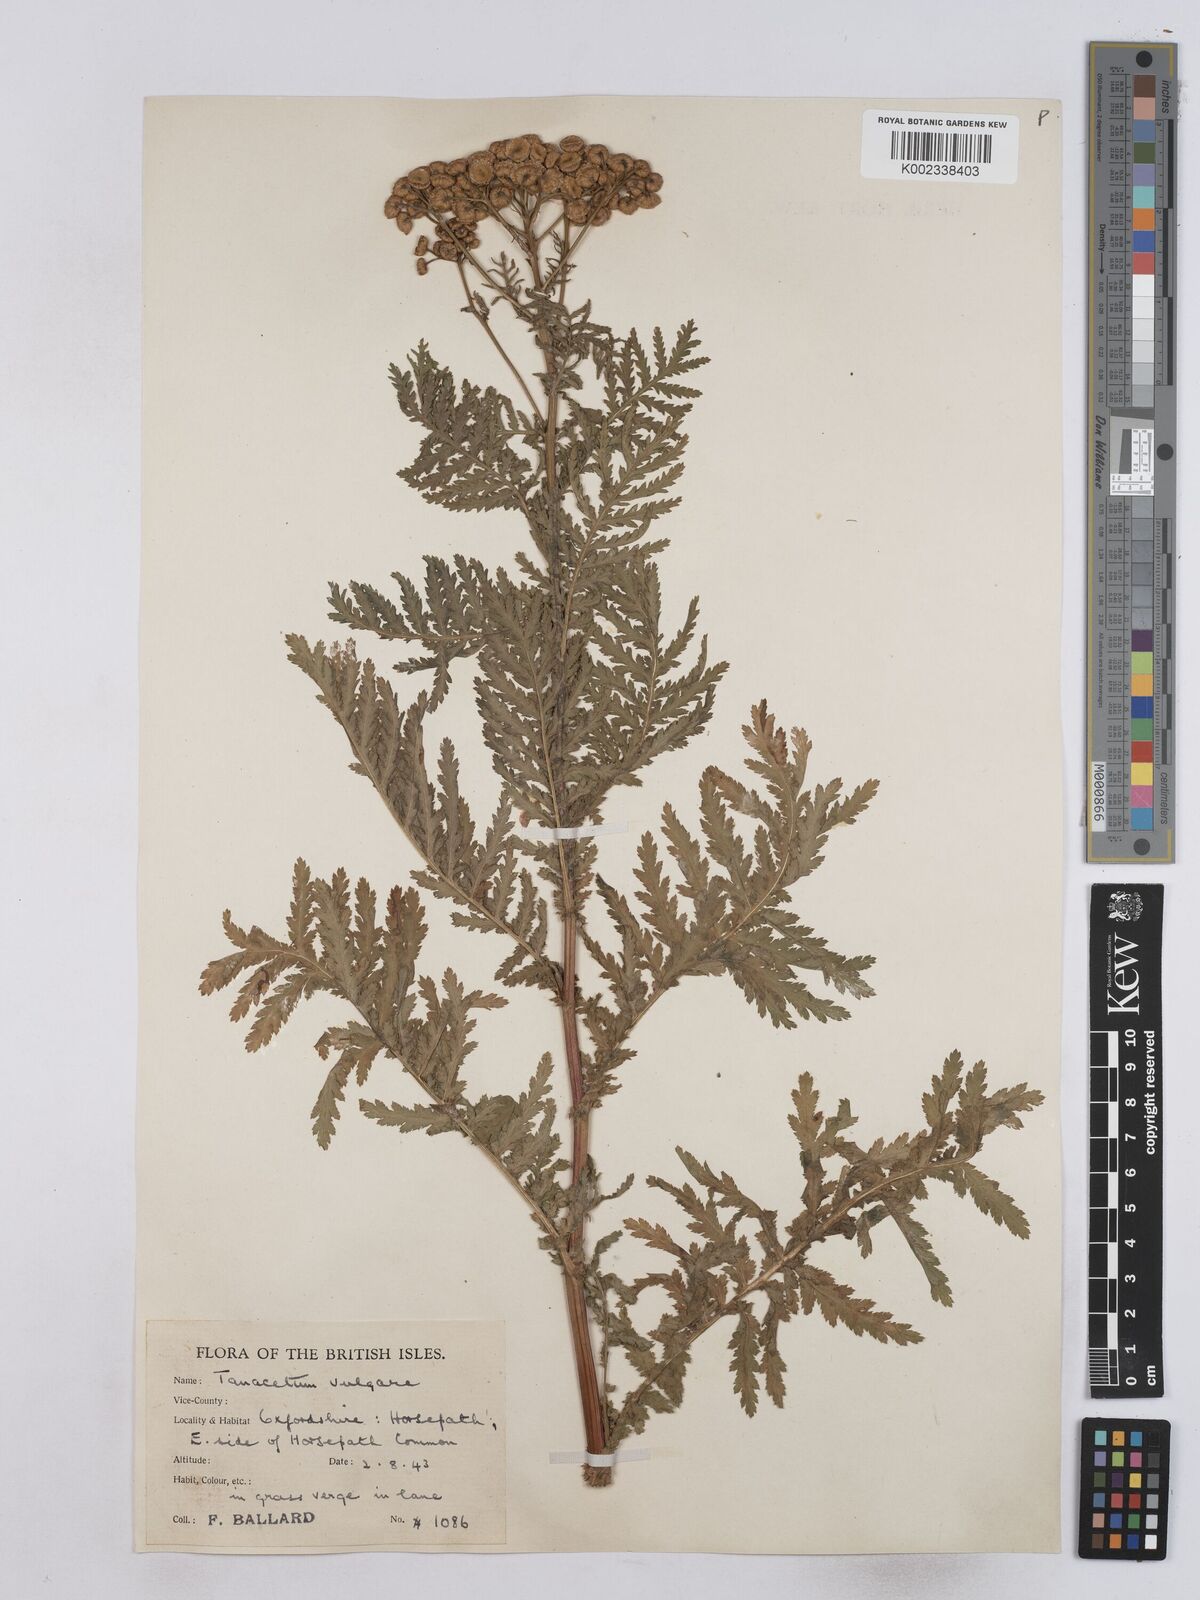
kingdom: Plantae
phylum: Tracheophyta
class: Magnoliopsida
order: Asterales
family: Asteraceae
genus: Tanacetum
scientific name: Tanacetum vulgare
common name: Common tansy
